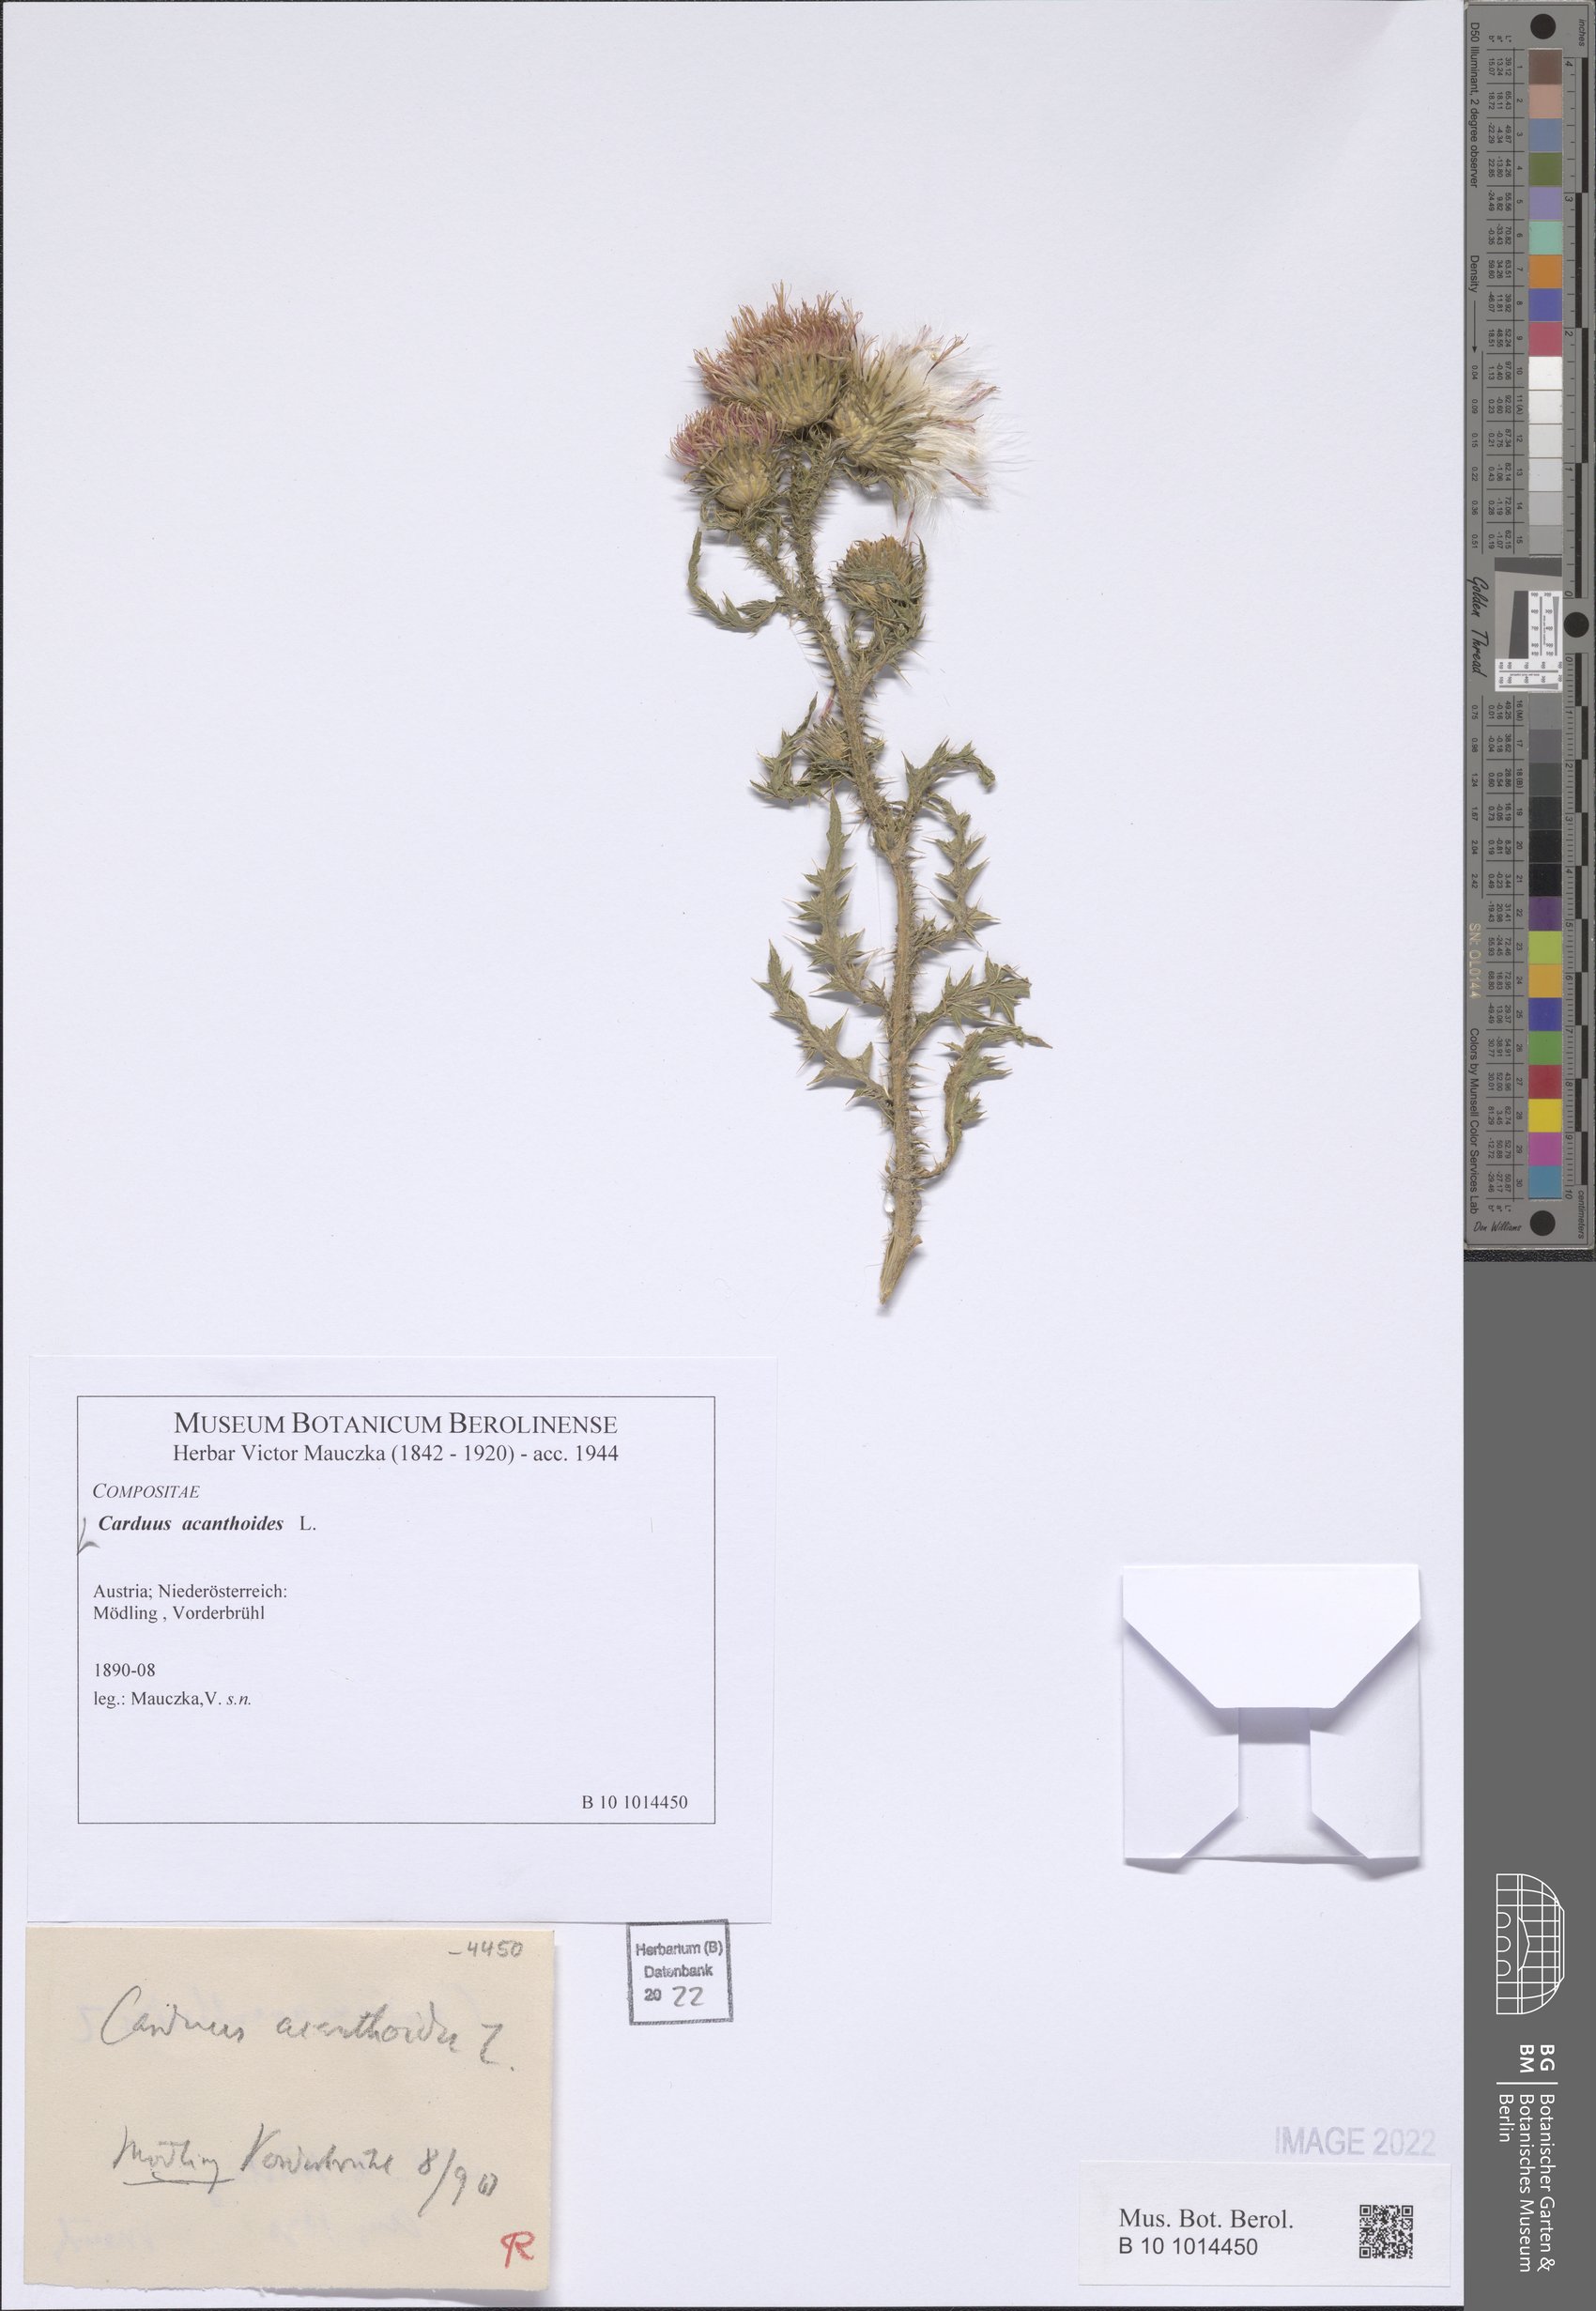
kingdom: Plantae
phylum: Tracheophyta
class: Magnoliopsida
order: Asterales
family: Asteraceae
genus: Carduus
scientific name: Carduus acanthoides
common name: Plumeless thistle
